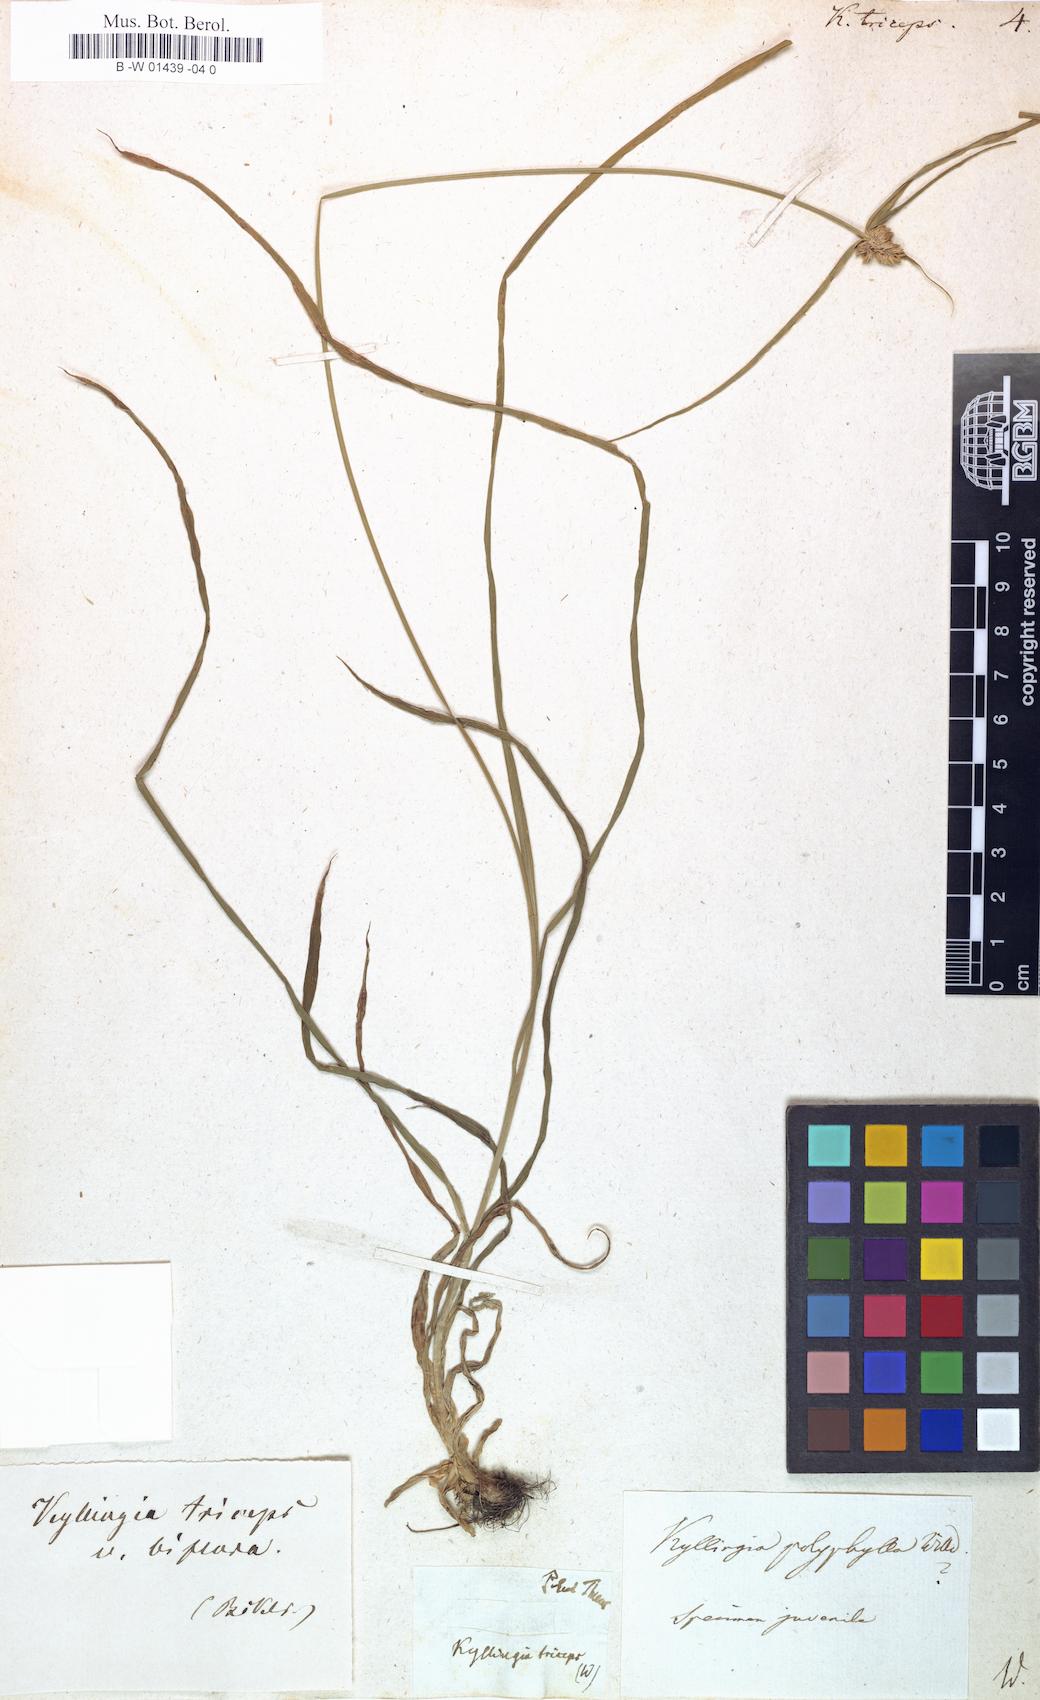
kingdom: Plantae
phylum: Tracheophyta
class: Liliopsida
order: Poales
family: Cyperaceae
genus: Cyperus
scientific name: Cyperus Kyllinga triceps
